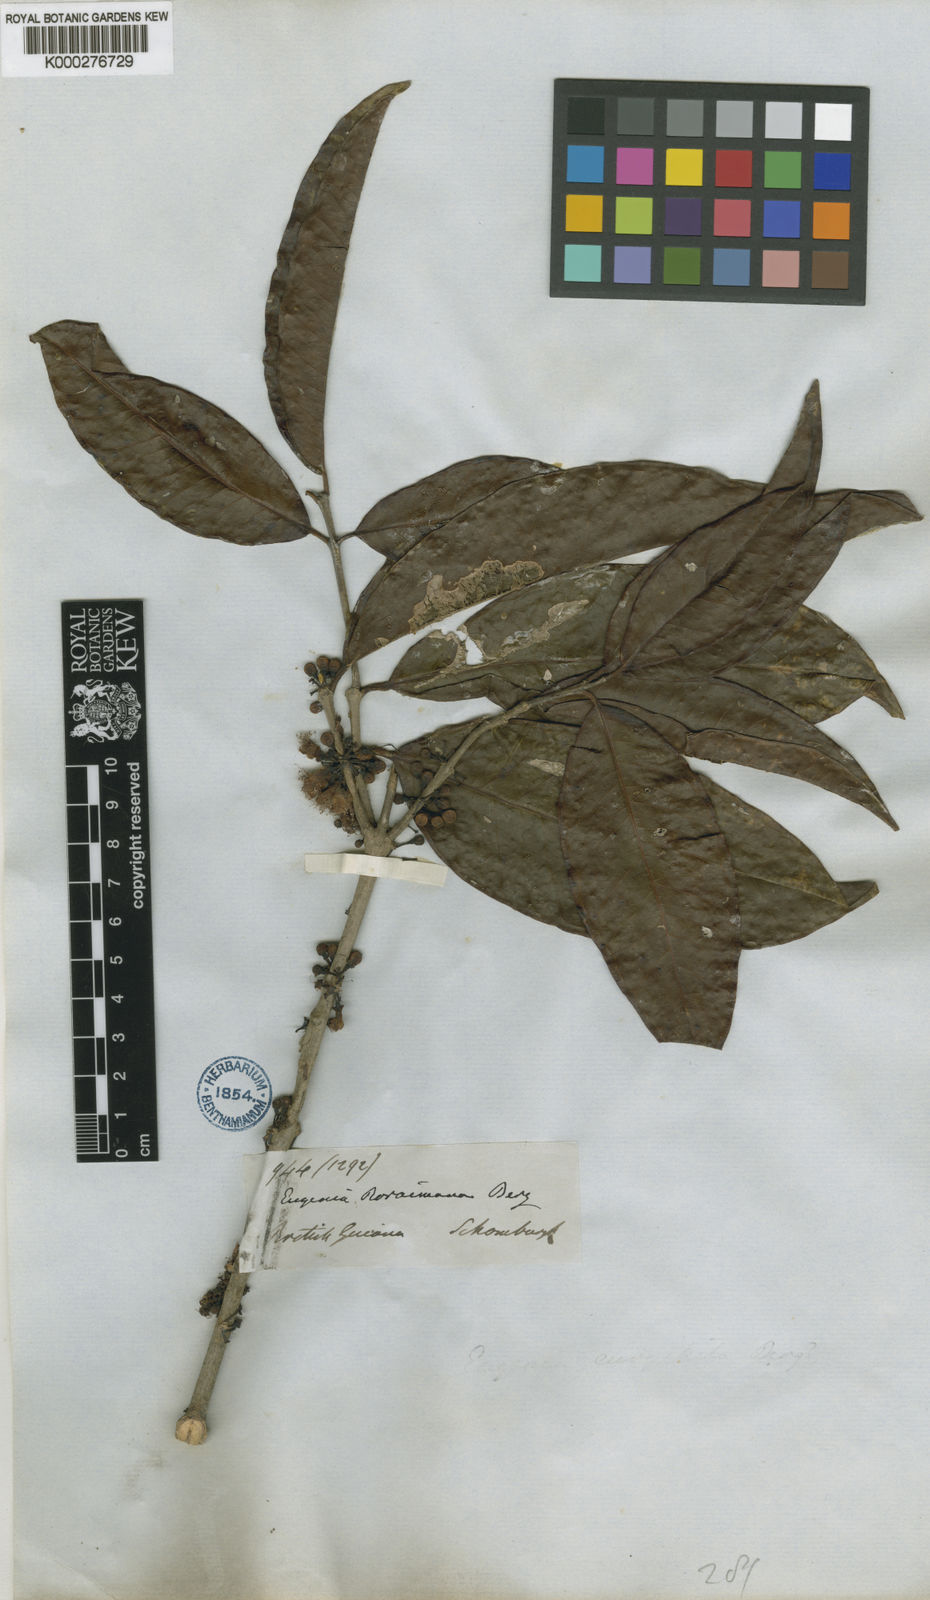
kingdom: Plantae
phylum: Tracheophyta
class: Magnoliopsida
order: Myrtales
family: Myrtaceae
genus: Eugenia
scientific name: Eugenia stictopetala
